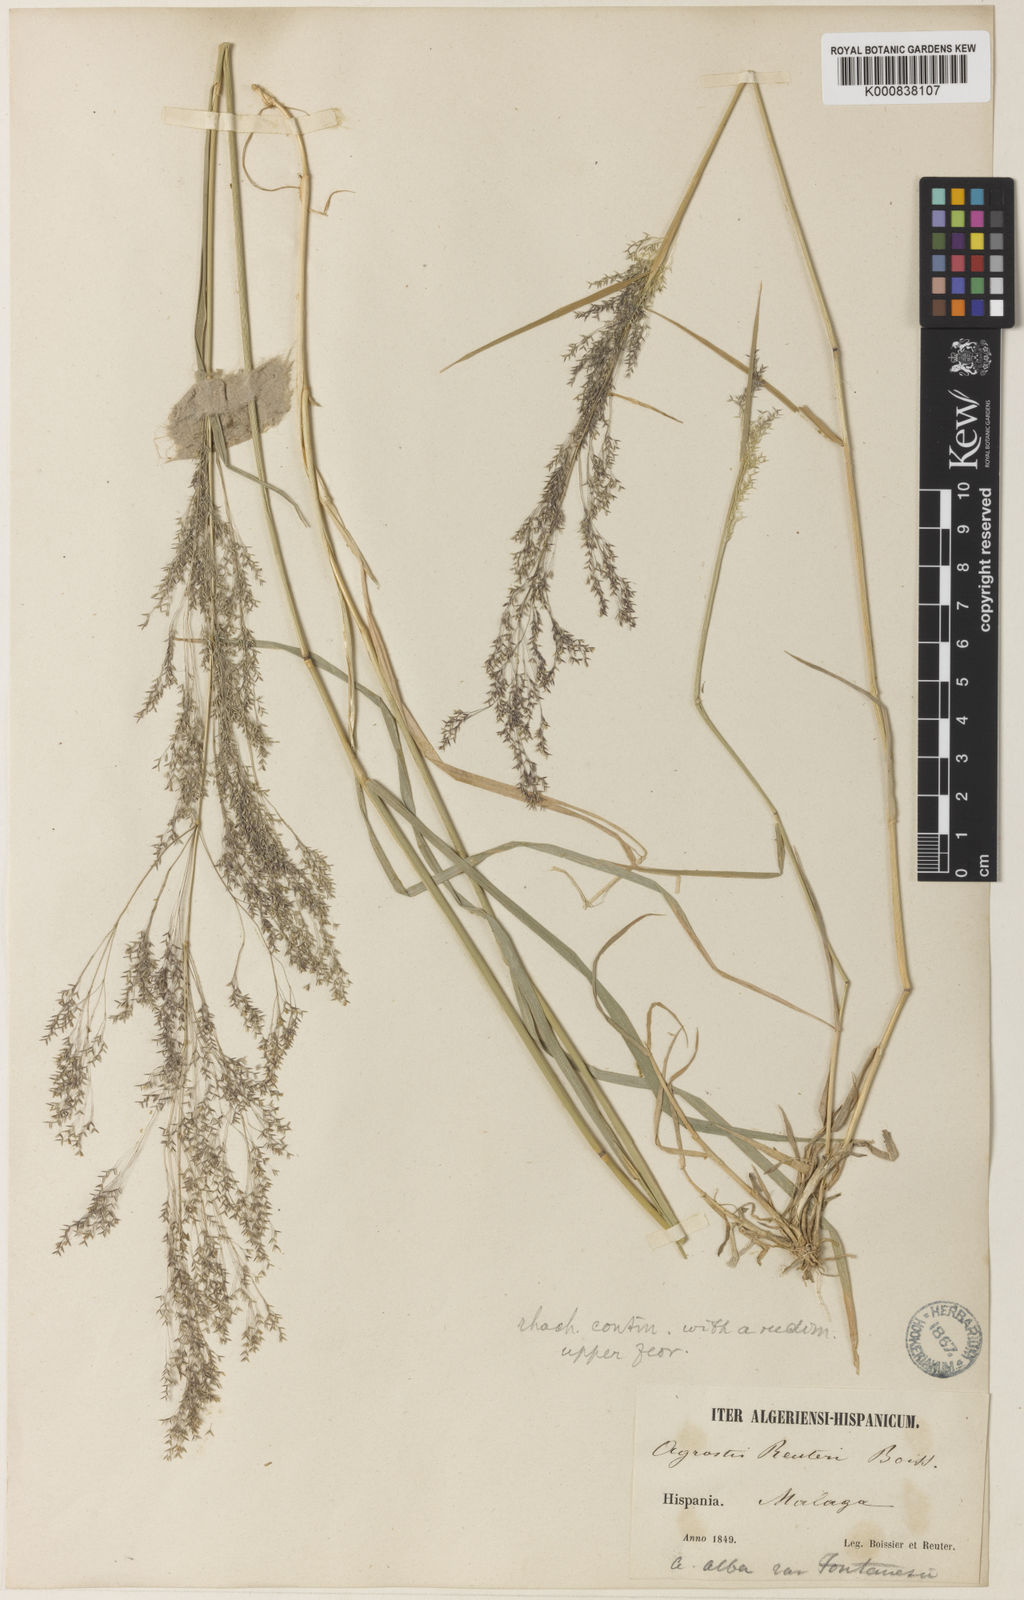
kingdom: Plantae
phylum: Tracheophyta
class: Liliopsida
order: Poales
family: Poaceae
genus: Agrostis
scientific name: Agrostis reuteri
